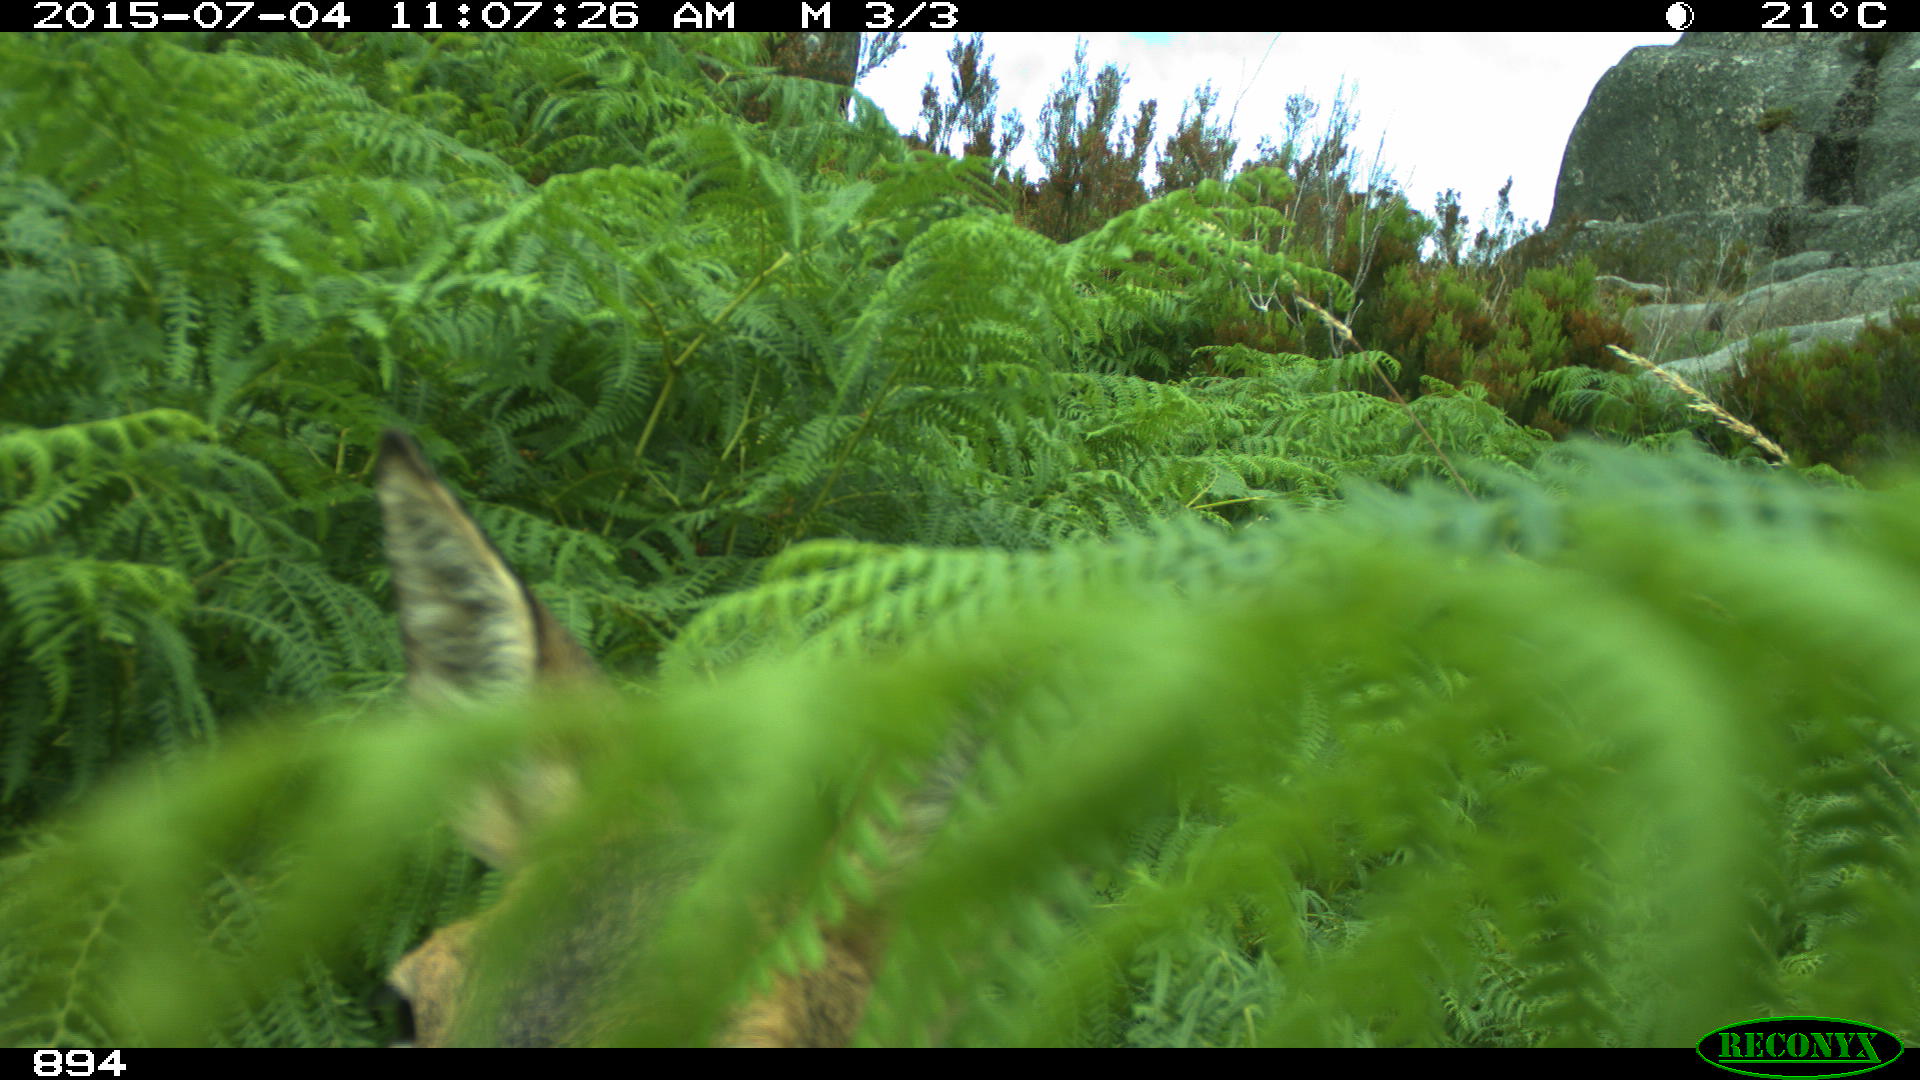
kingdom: Animalia
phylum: Chordata
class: Mammalia
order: Artiodactyla
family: Cervidae
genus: Capreolus
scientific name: Capreolus capreolus
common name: Western roe deer
